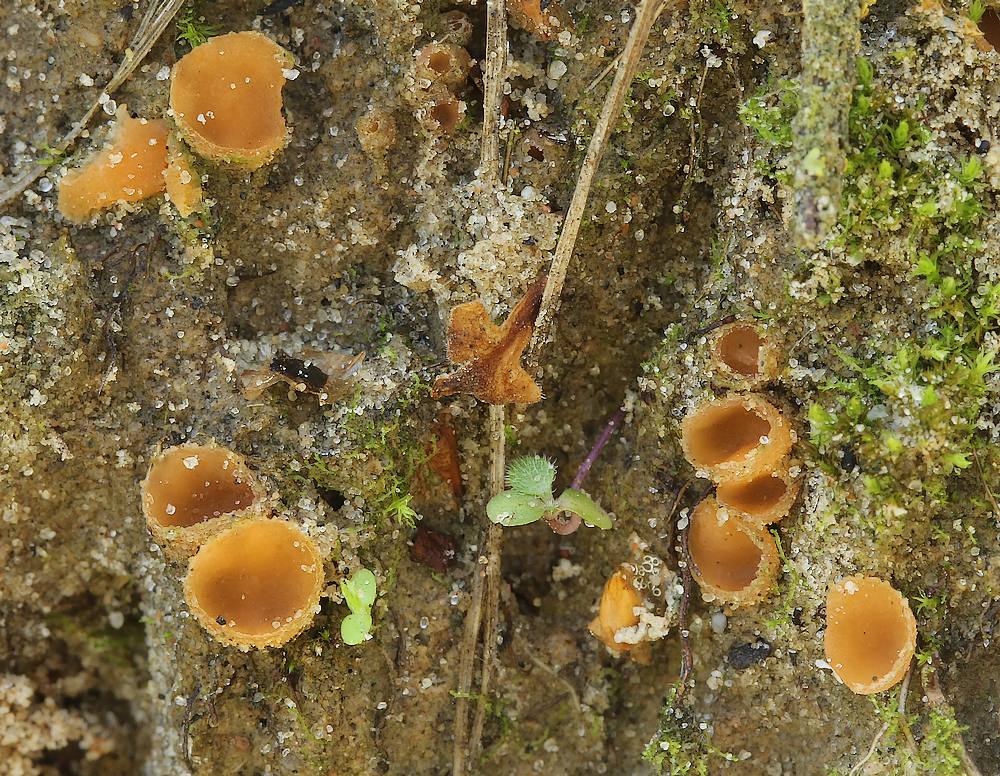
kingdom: Fungi
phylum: Ascomycota
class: Pezizomycetes
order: Pezizales
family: Pyronemataceae
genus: Geopora
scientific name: Geopora semi-immersa
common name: nedsænket børstebæger
